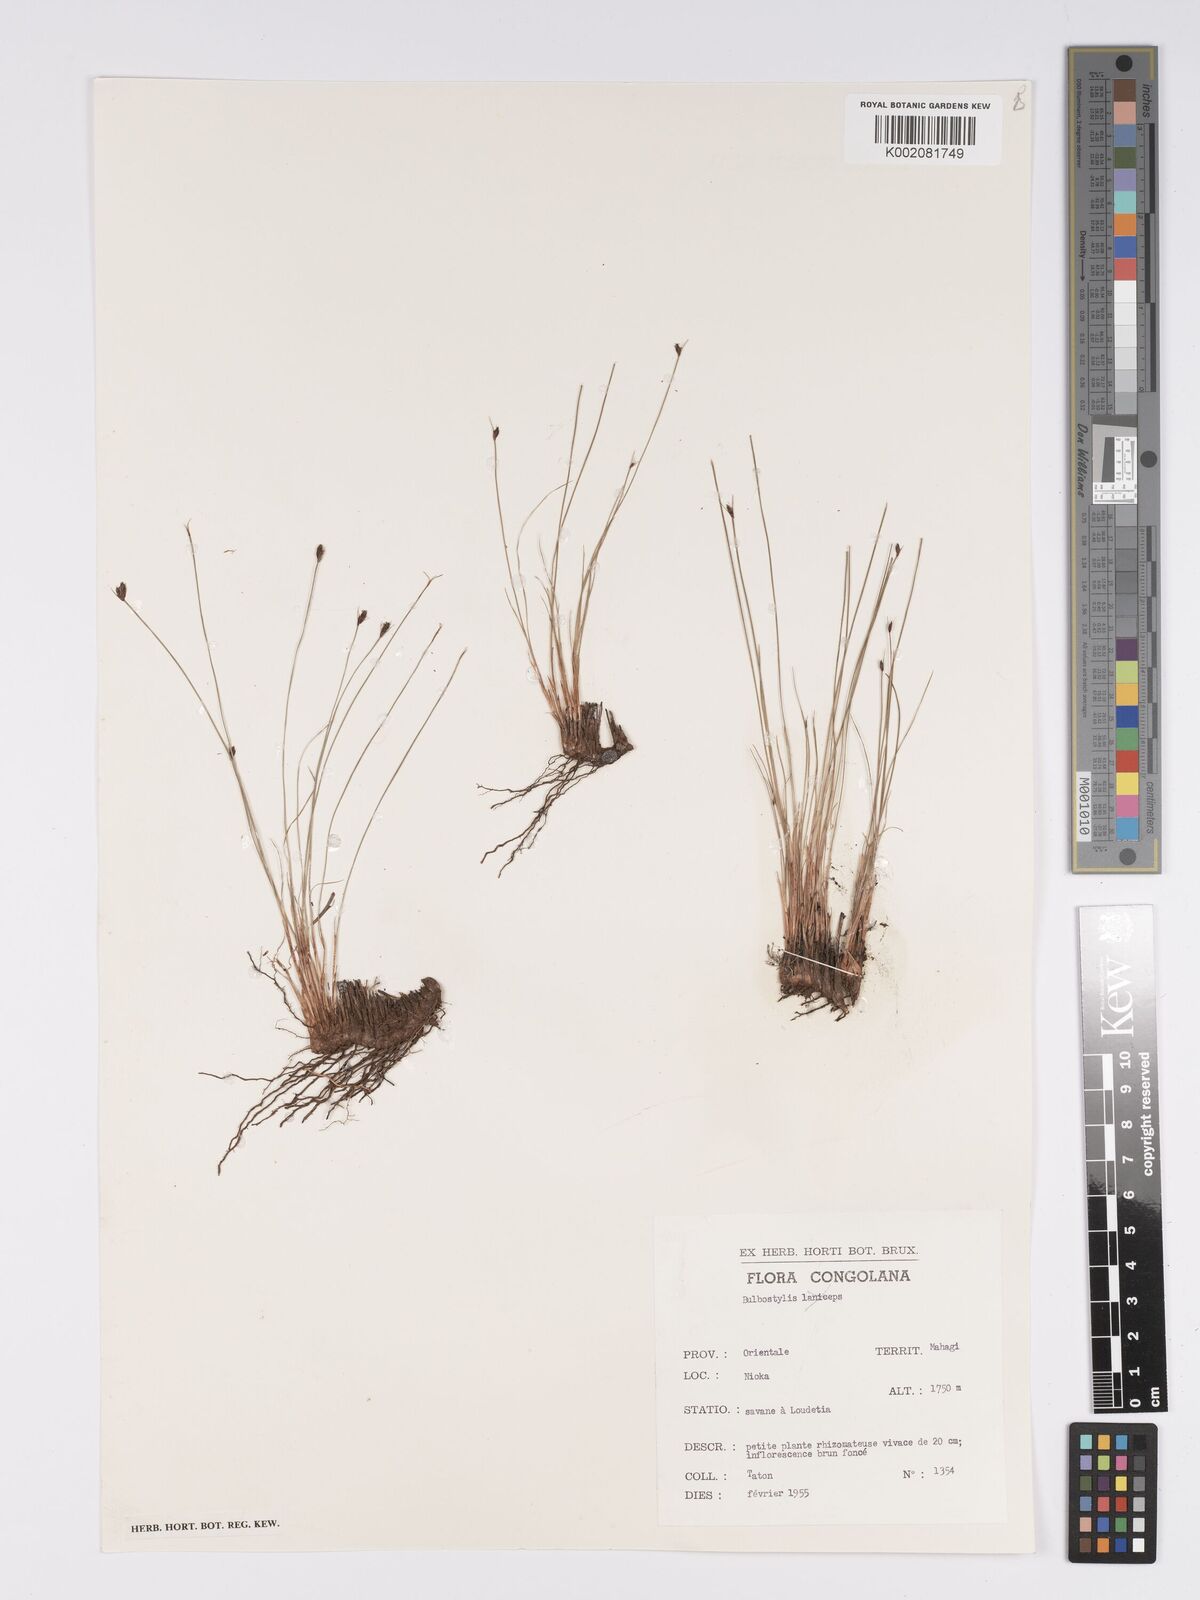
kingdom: Plantae
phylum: Tracheophyta
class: Liliopsida
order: Poales
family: Cyperaceae
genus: Bulbostylis
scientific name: Bulbostylis oritrephes
